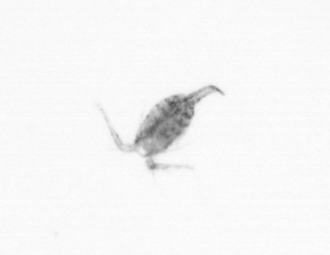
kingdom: Animalia
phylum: Arthropoda
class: Copepoda
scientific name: Copepoda
